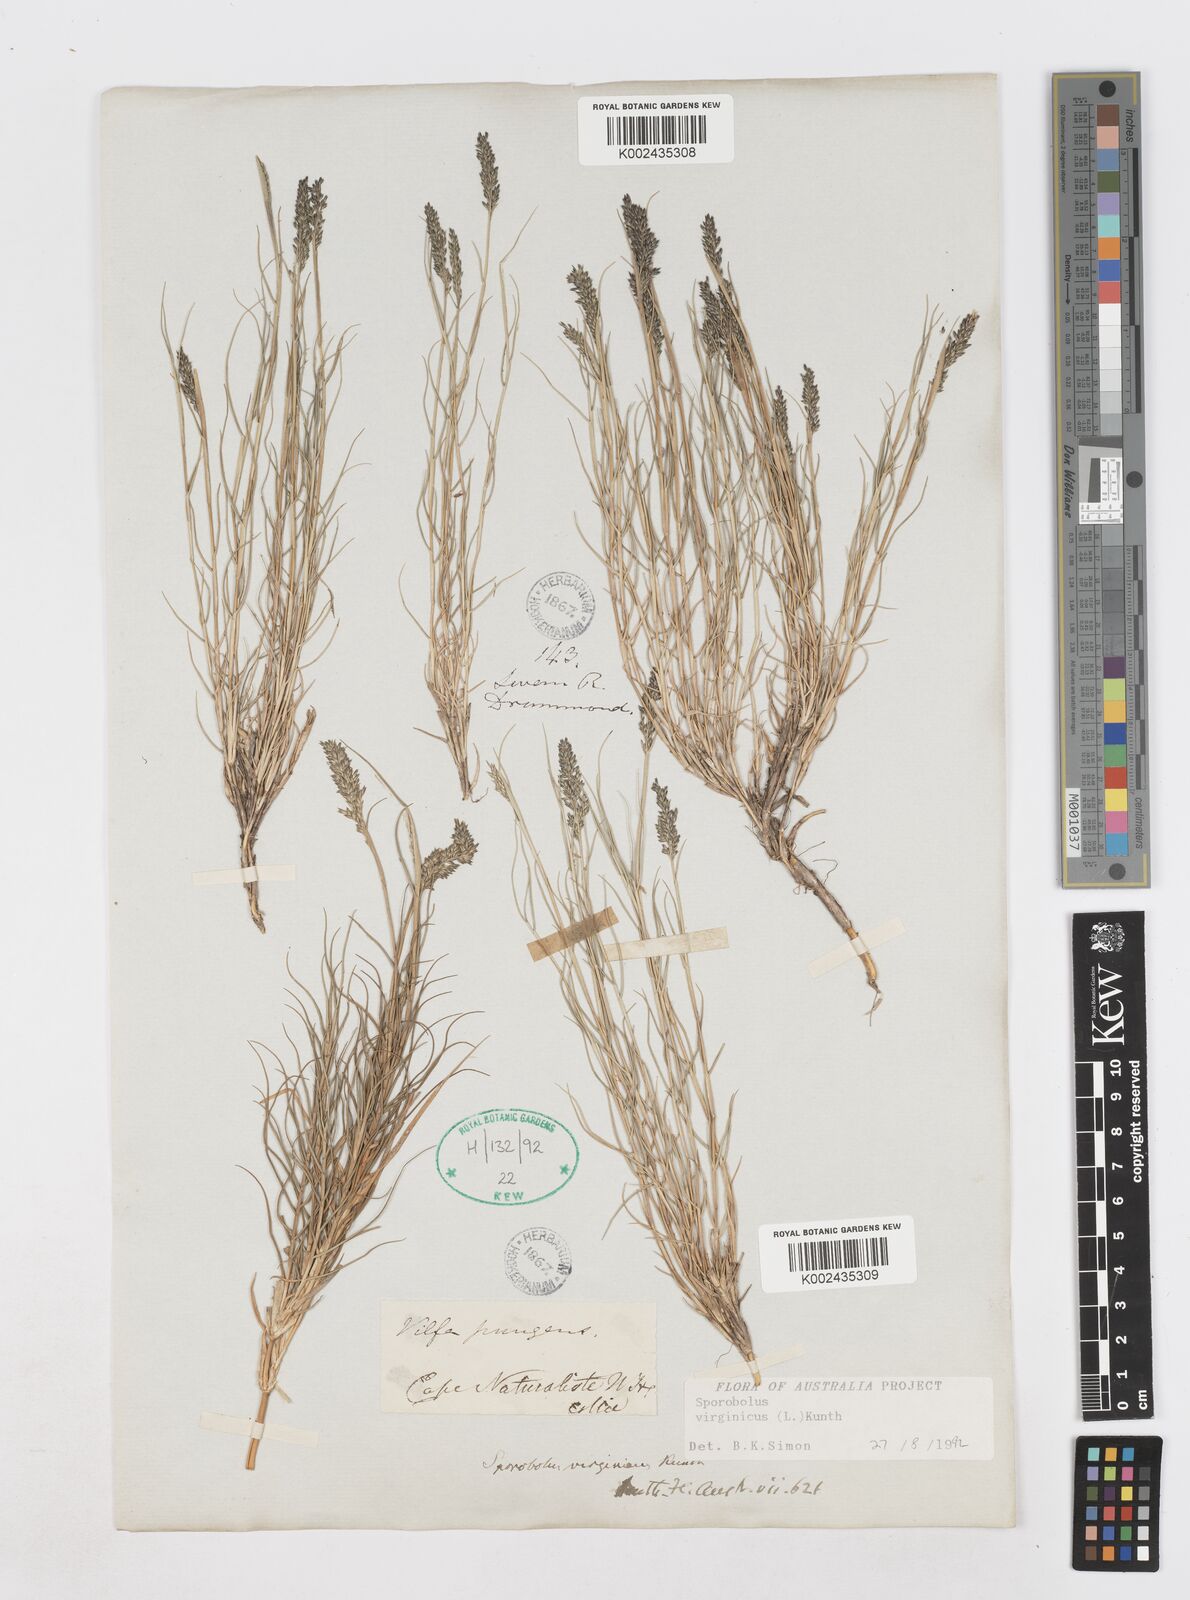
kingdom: Plantae
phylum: Tracheophyta
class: Liliopsida
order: Poales
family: Poaceae
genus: Sporobolus
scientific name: Sporobolus virginicus
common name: Beach dropseed
